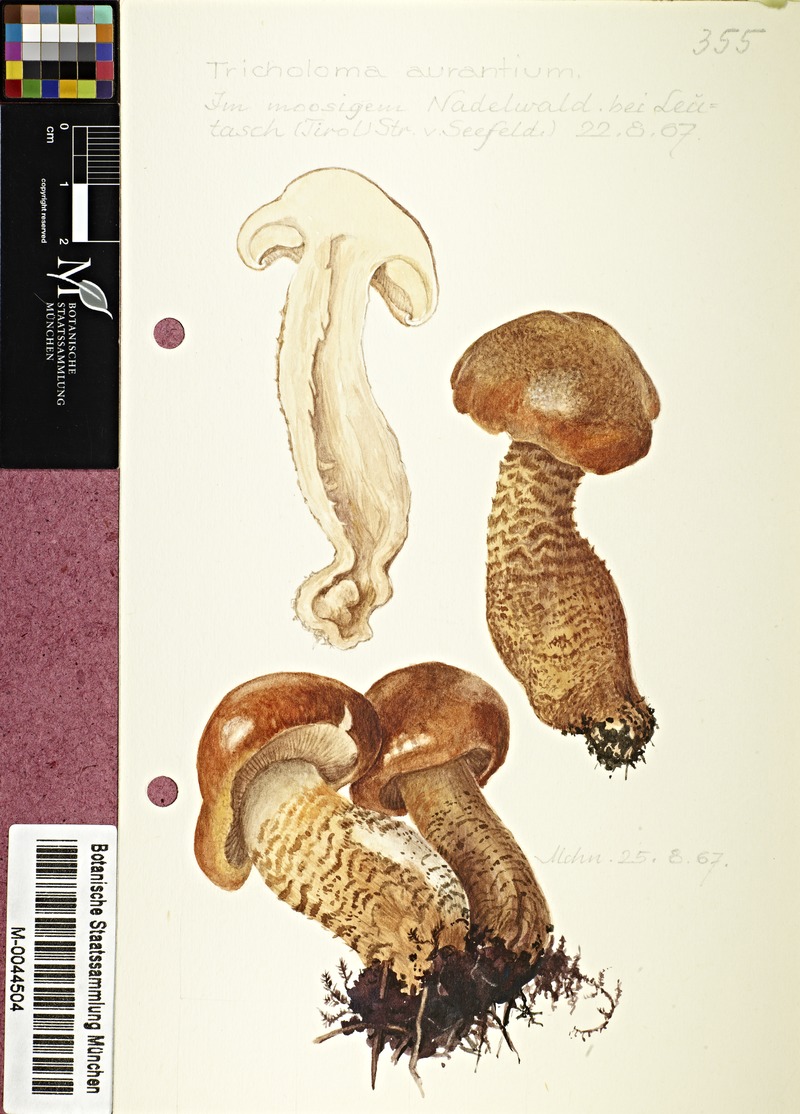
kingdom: Fungi
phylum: Basidiomycota
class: Agaricomycetes
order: Agaricales
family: Tricholomataceae
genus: Tricholoma
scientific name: Tricholoma aurantium
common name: Orange knight
